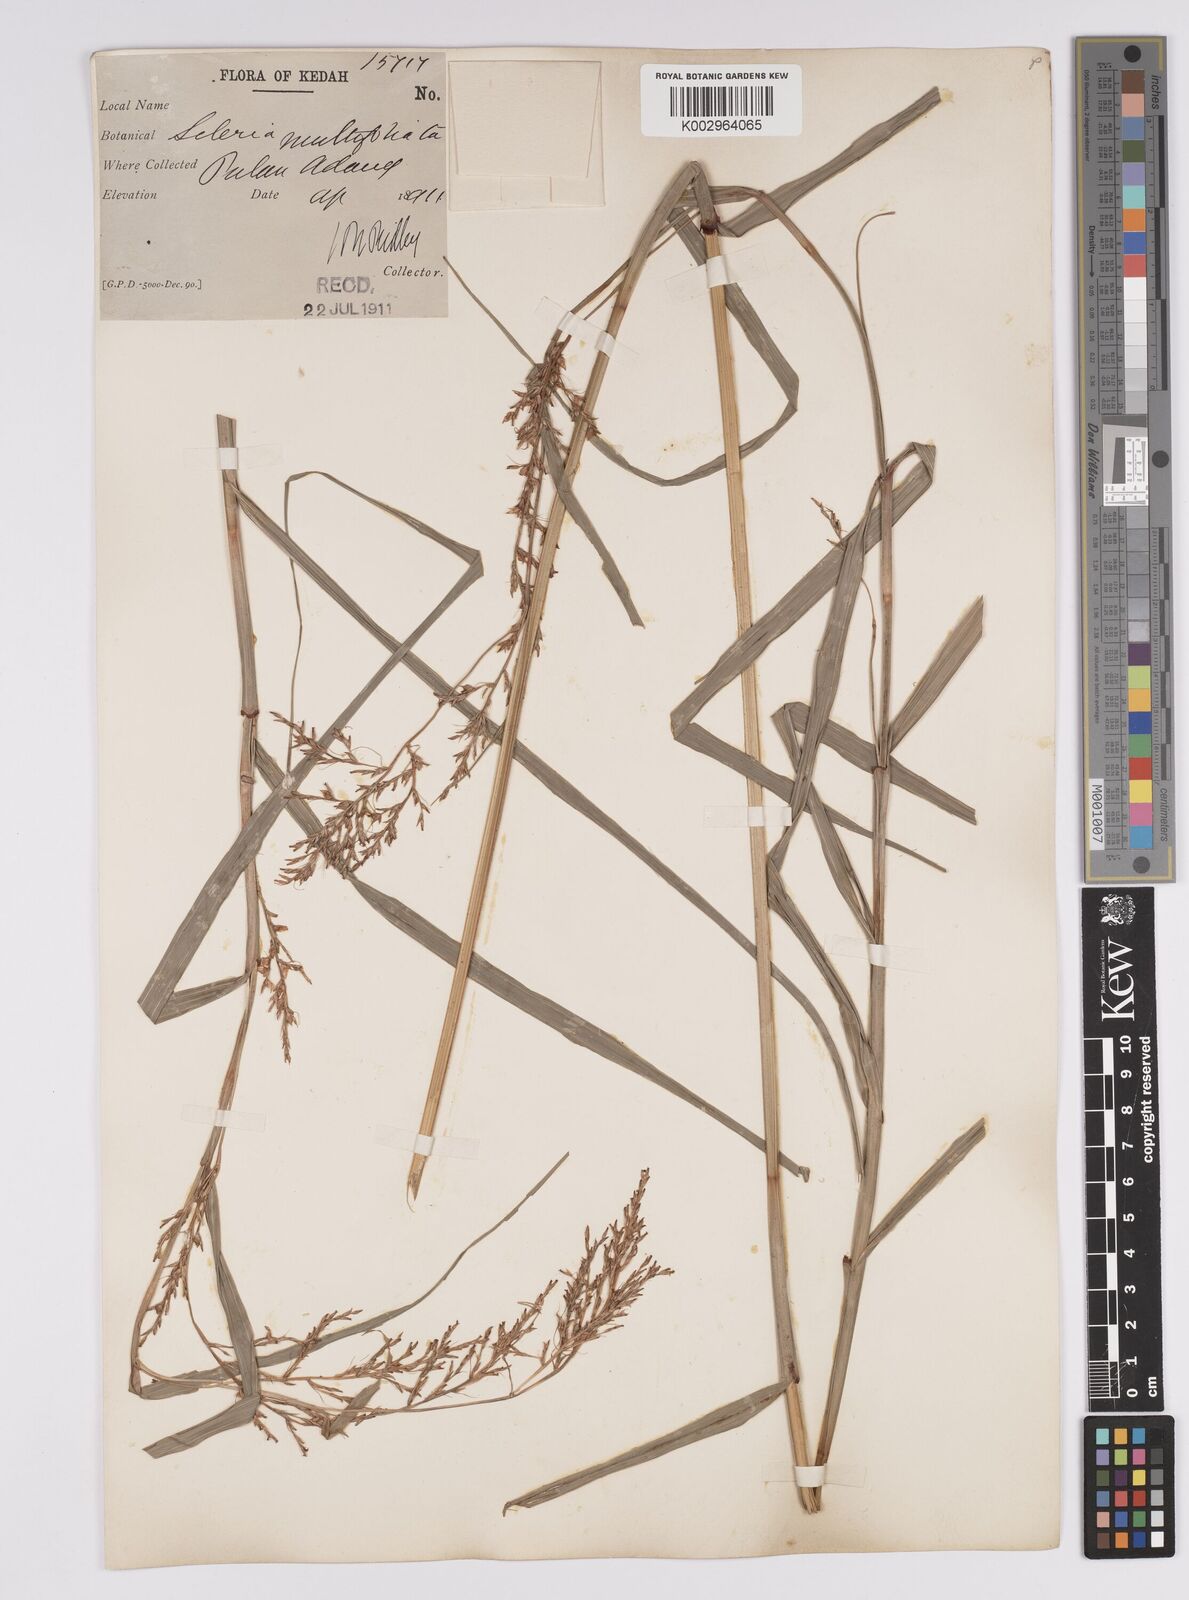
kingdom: Plantae
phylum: Tracheophyta
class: Liliopsida
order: Poales
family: Cyperaceae
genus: Scleria
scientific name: Scleria purpurascens
